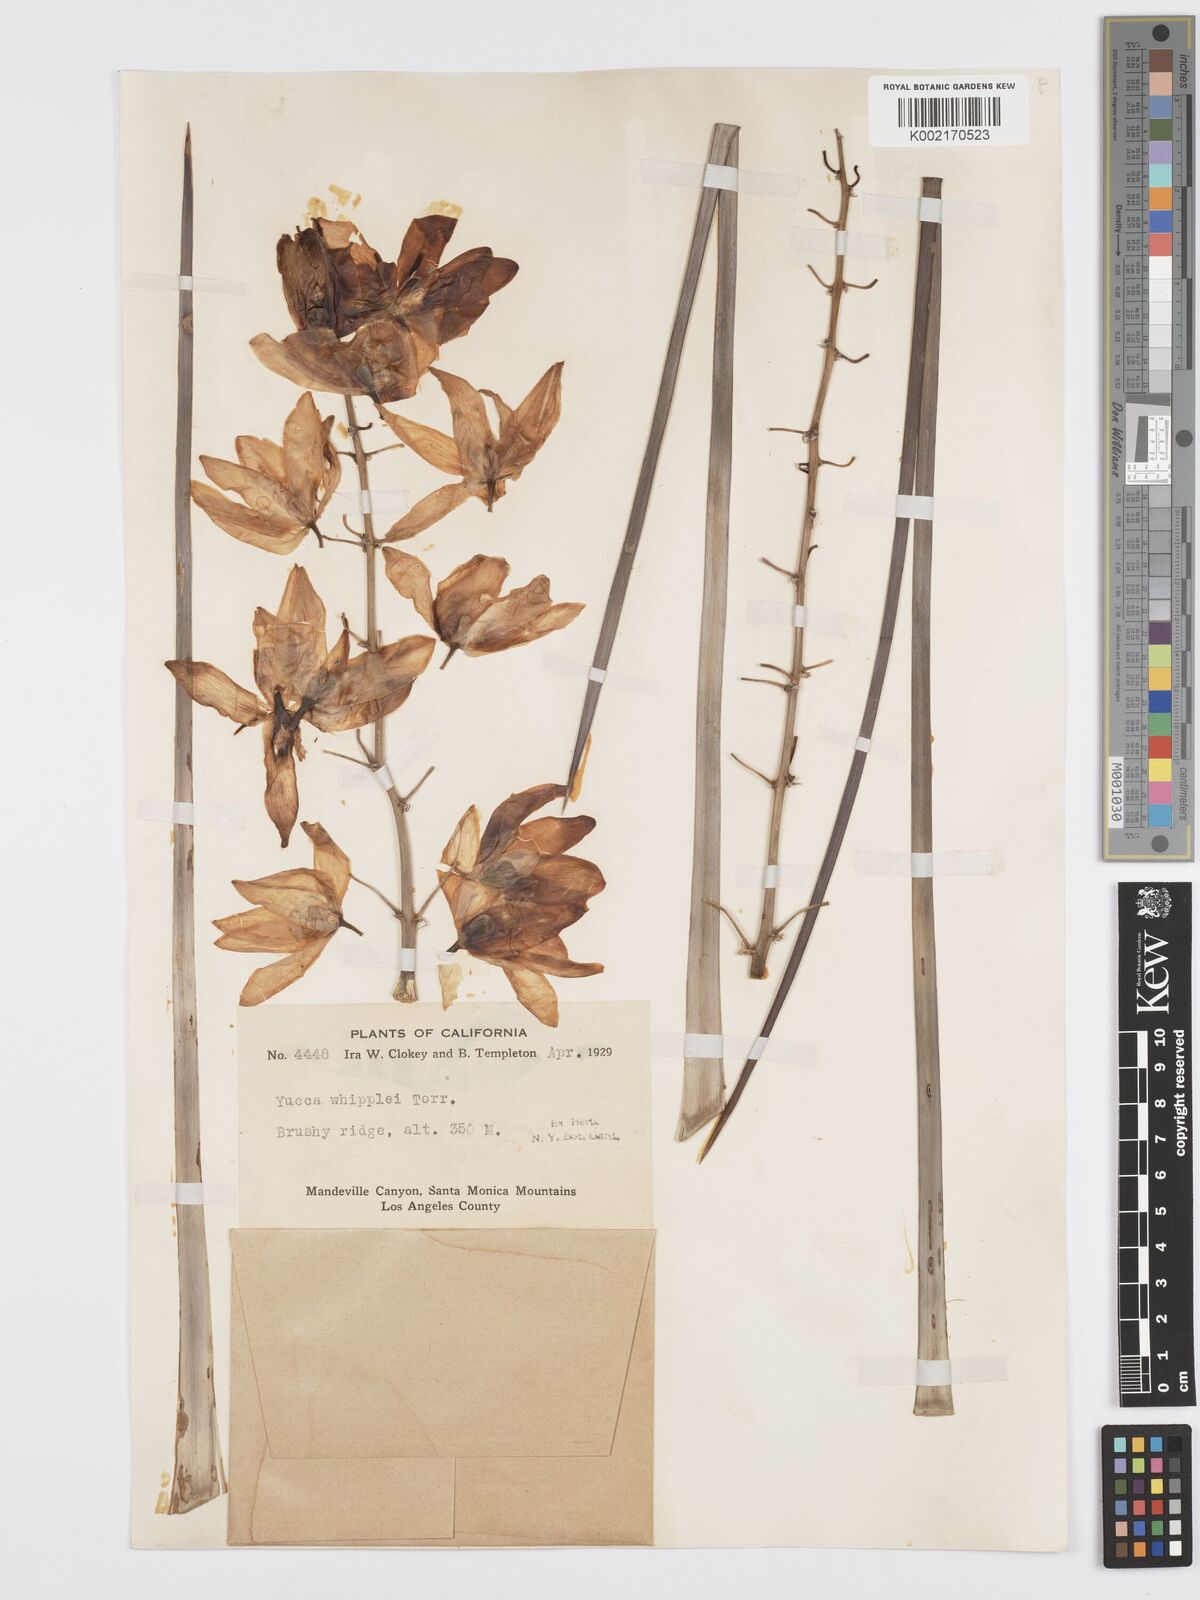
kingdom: Plantae
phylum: Tracheophyta
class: Liliopsida
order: Asparagales
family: Asparagaceae
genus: Hesperoyucca
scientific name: Hesperoyucca whipplei
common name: Our lord's-candle
